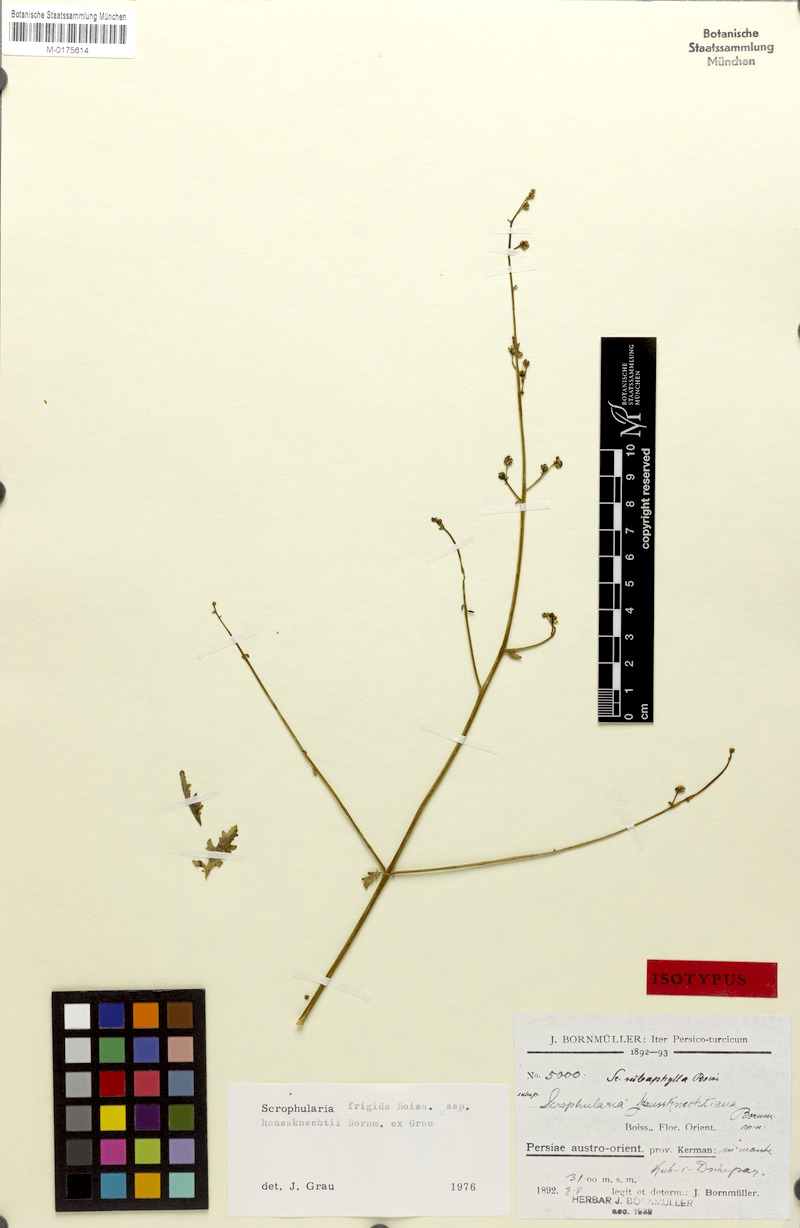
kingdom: Plantae
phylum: Tracheophyta
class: Magnoliopsida
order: Lamiales
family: Scrophulariaceae
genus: Scrophularia
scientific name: Scrophularia frigida
